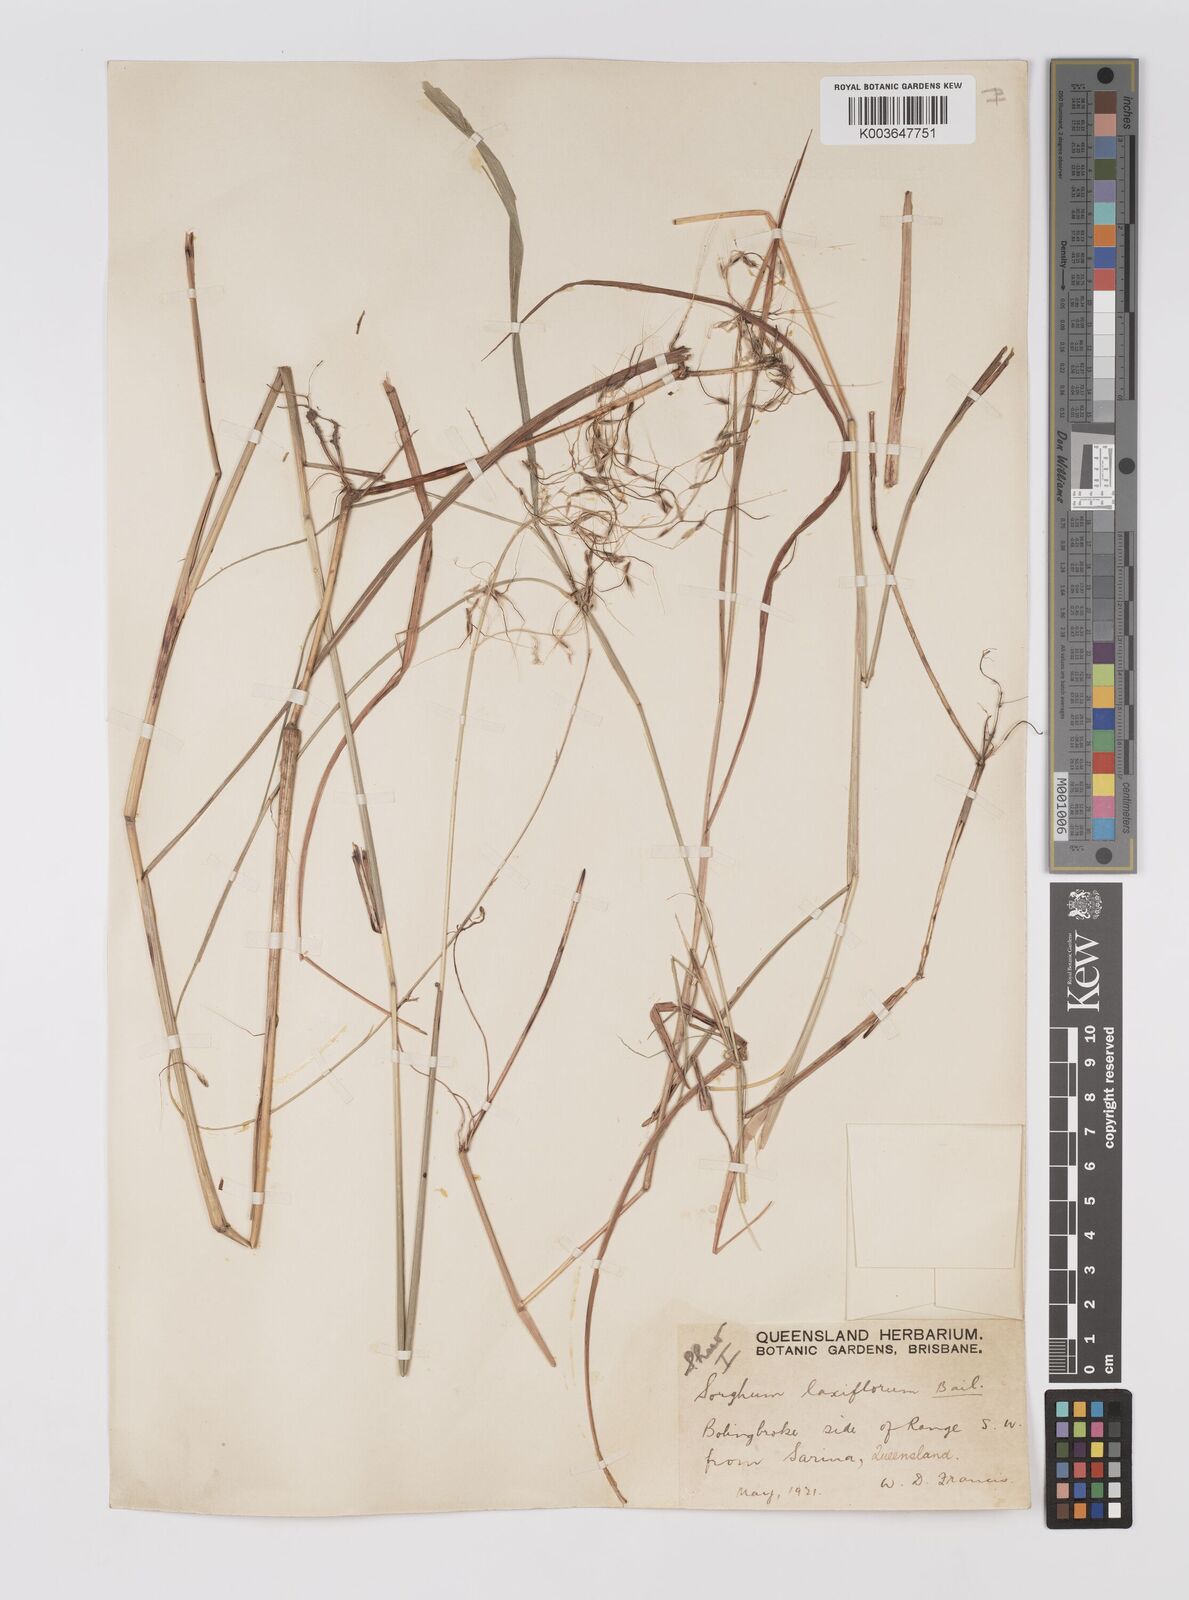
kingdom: Plantae
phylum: Tracheophyta
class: Liliopsida
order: Poales
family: Poaceae
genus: Sorghum
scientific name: Sorghum laxiflorum
